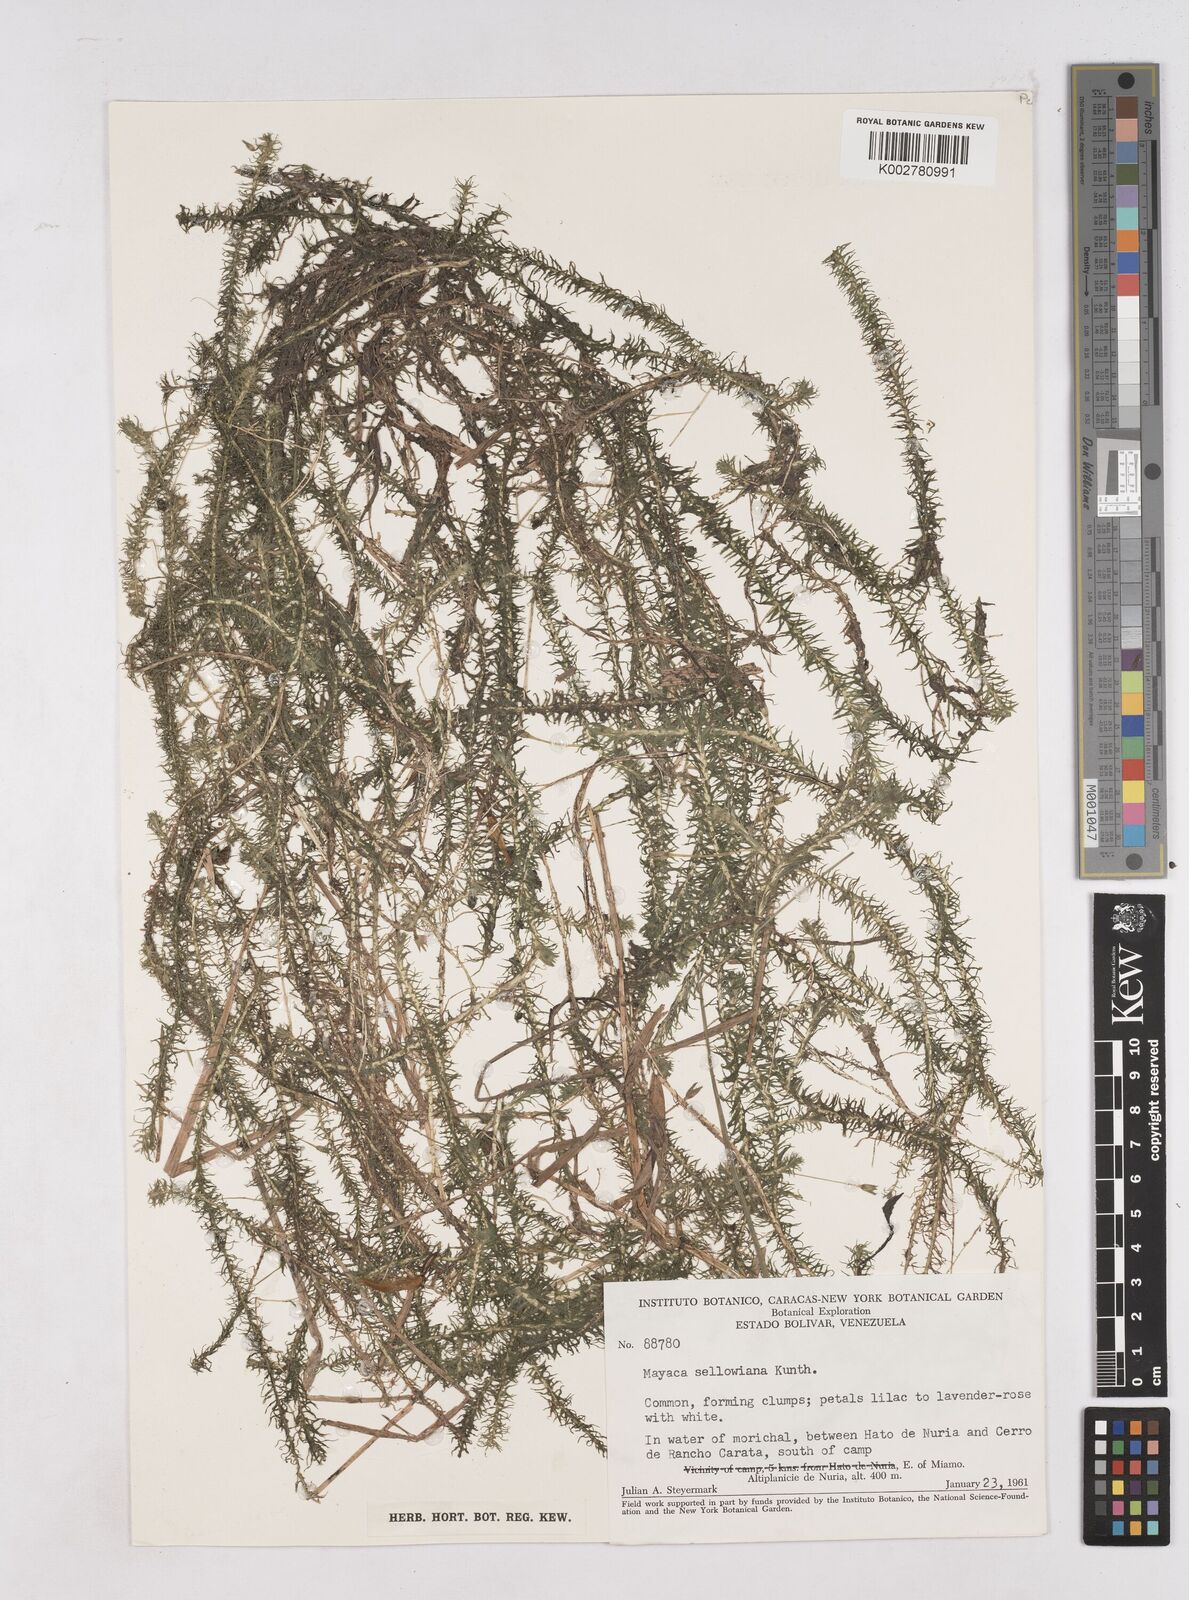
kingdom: Plantae
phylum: Tracheophyta
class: Liliopsida
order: Poales
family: Mayacaceae
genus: Mayaca
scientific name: Mayaca sellowiana
